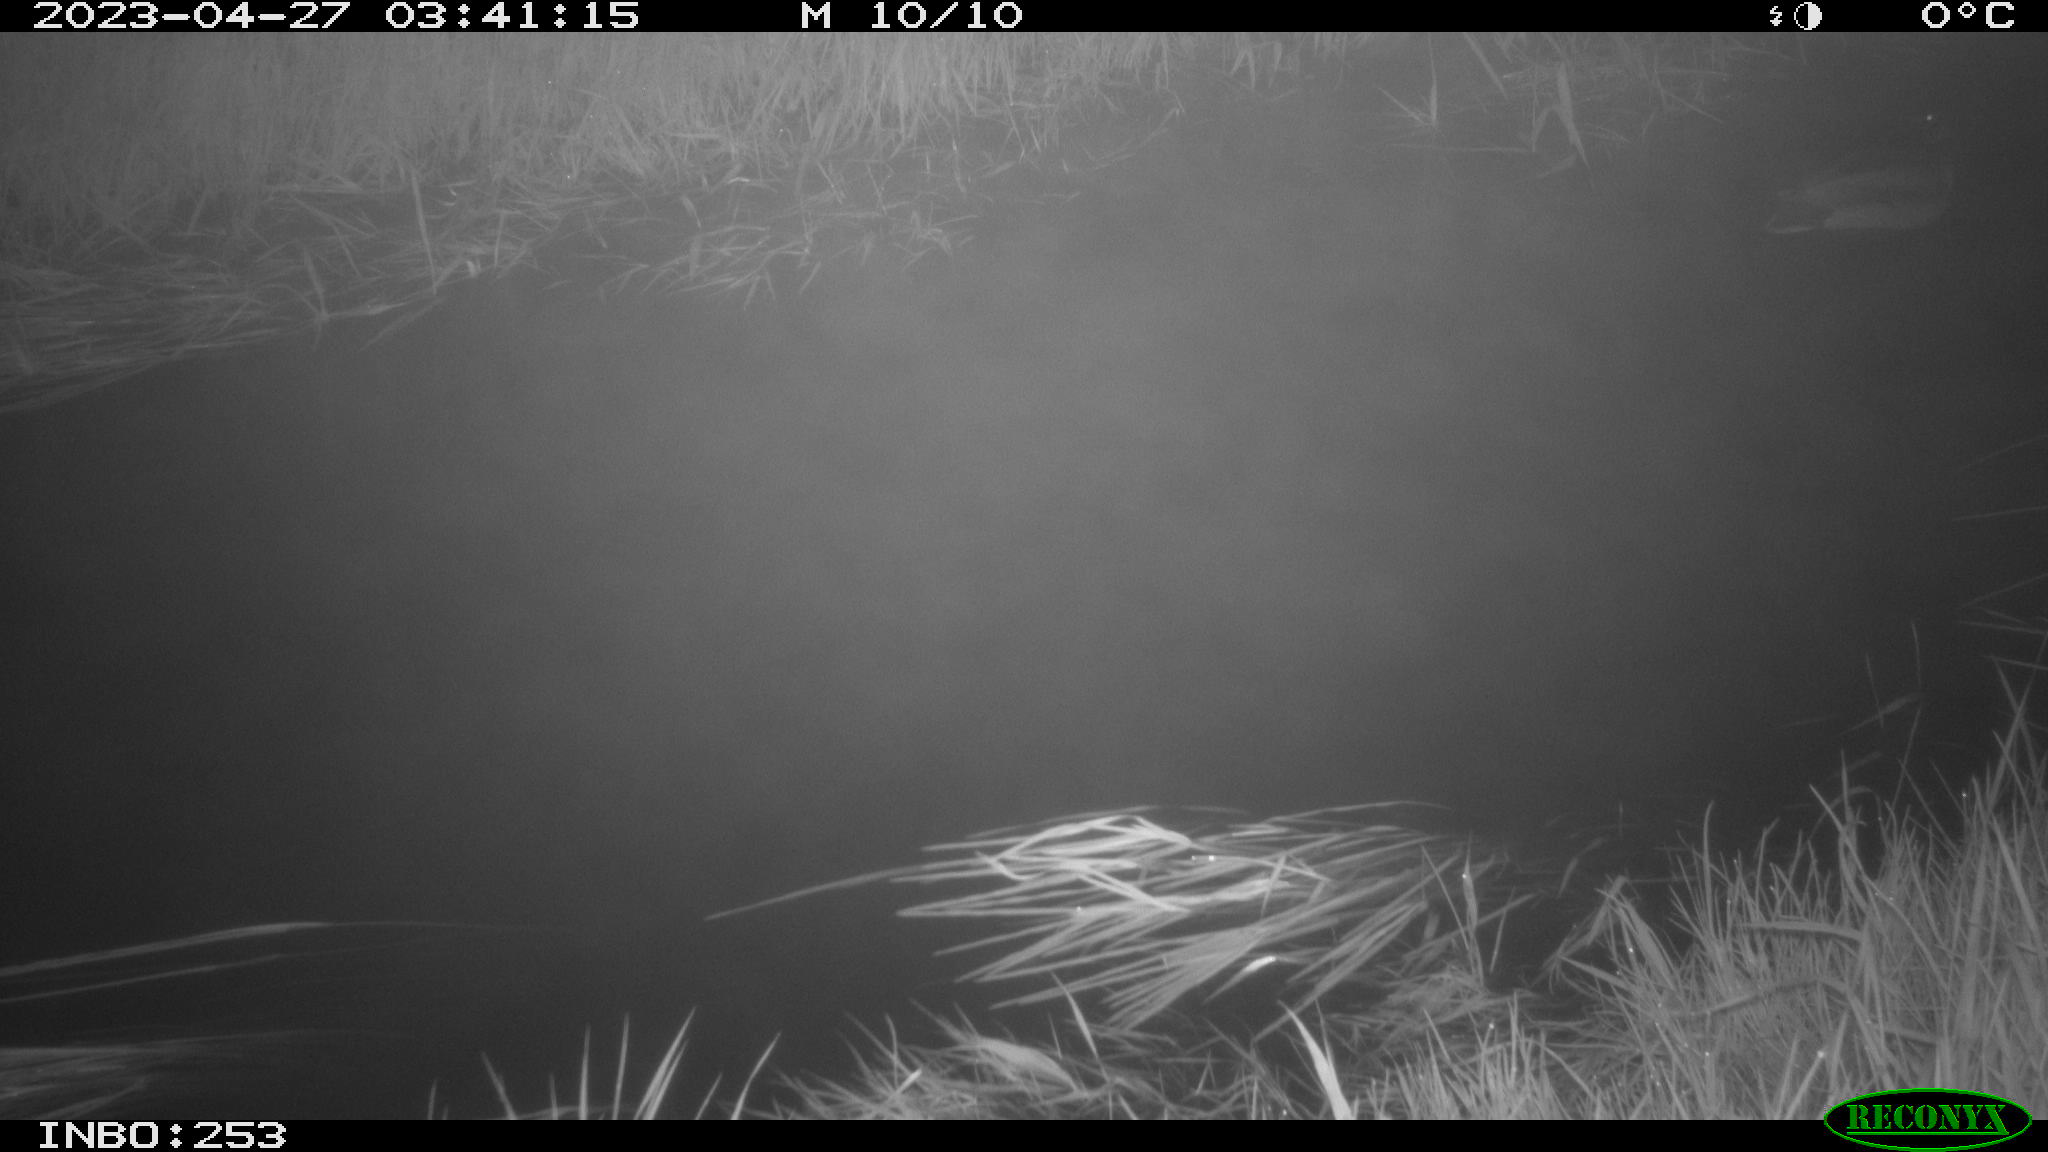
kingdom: Animalia
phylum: Chordata
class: Aves
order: Anseriformes
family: Anatidae
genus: Anas
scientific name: Anas
